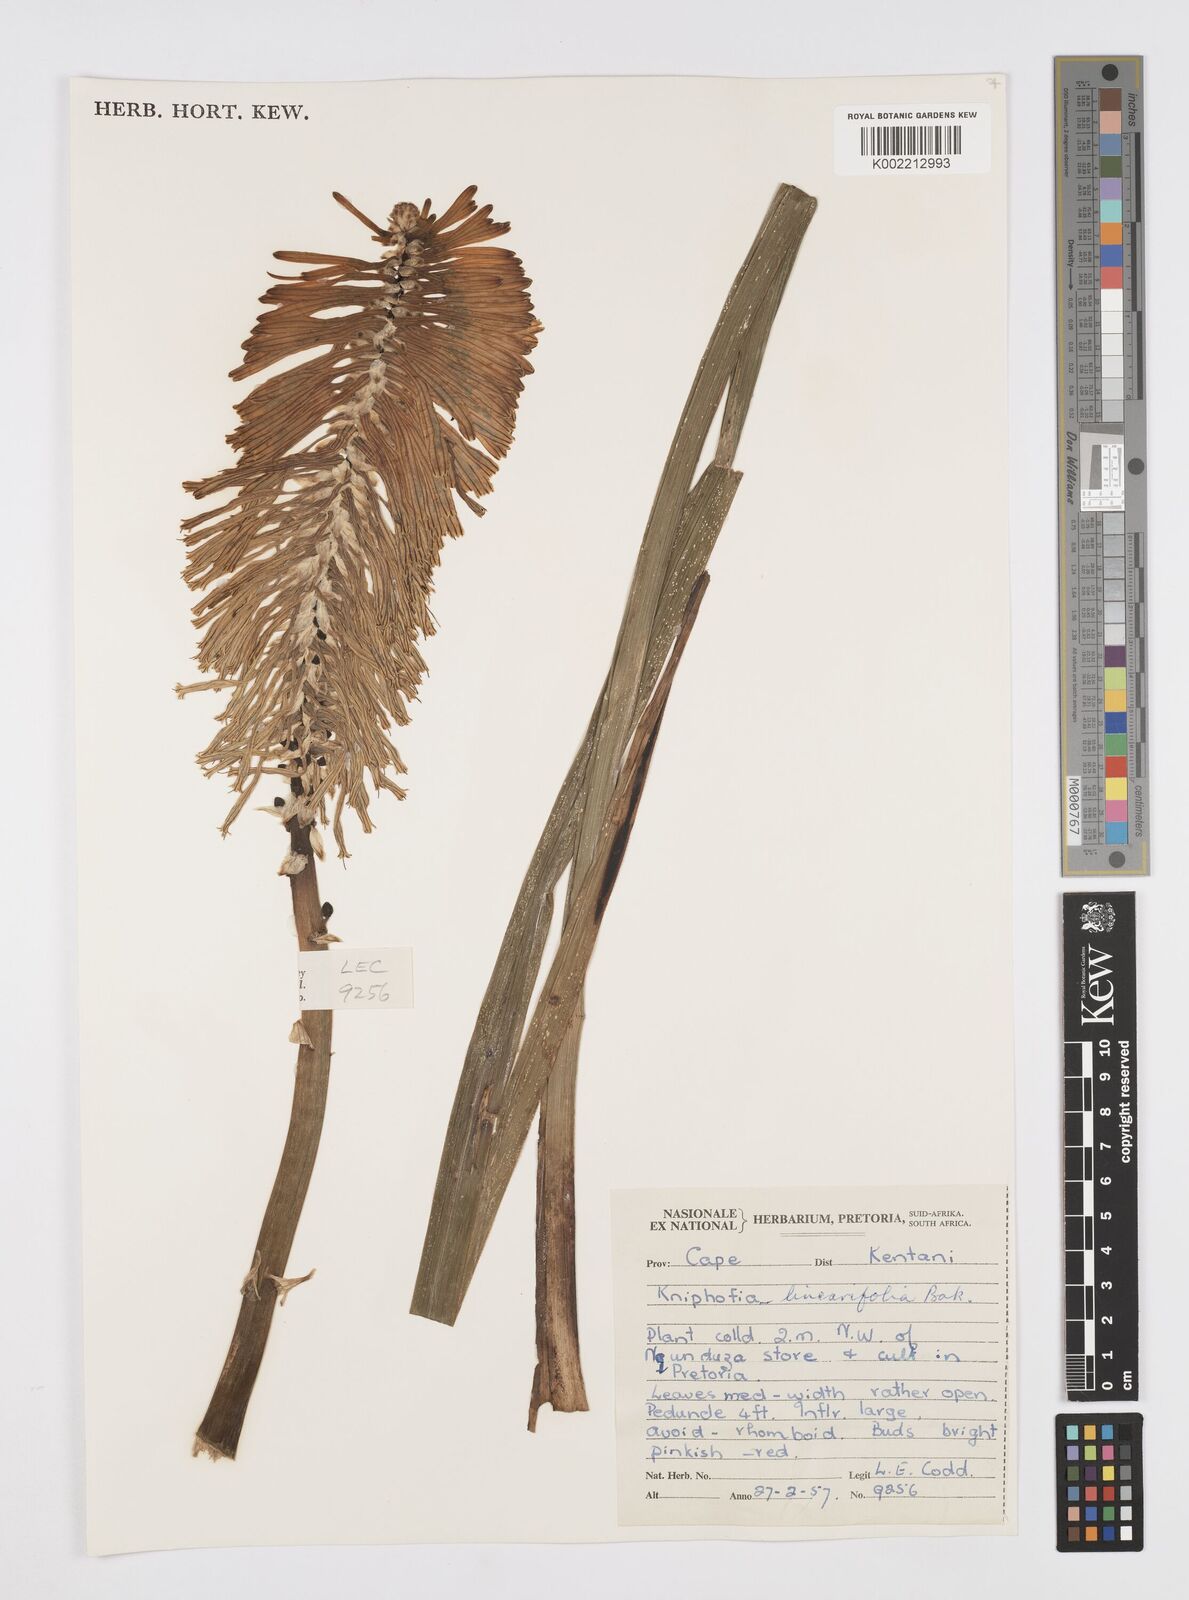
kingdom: Plantae
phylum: Tracheophyta
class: Liliopsida
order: Asparagales
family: Asphodelaceae
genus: Kniphofia
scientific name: Kniphofia linearifolia
